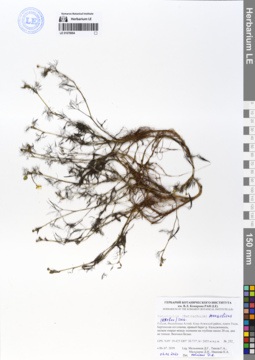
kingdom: Plantae
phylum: Tracheophyta
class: Magnoliopsida
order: Ranunculales
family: Ranunculaceae
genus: Ranunculus
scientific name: Ranunculus mongolicus
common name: Mongolia buttercup
